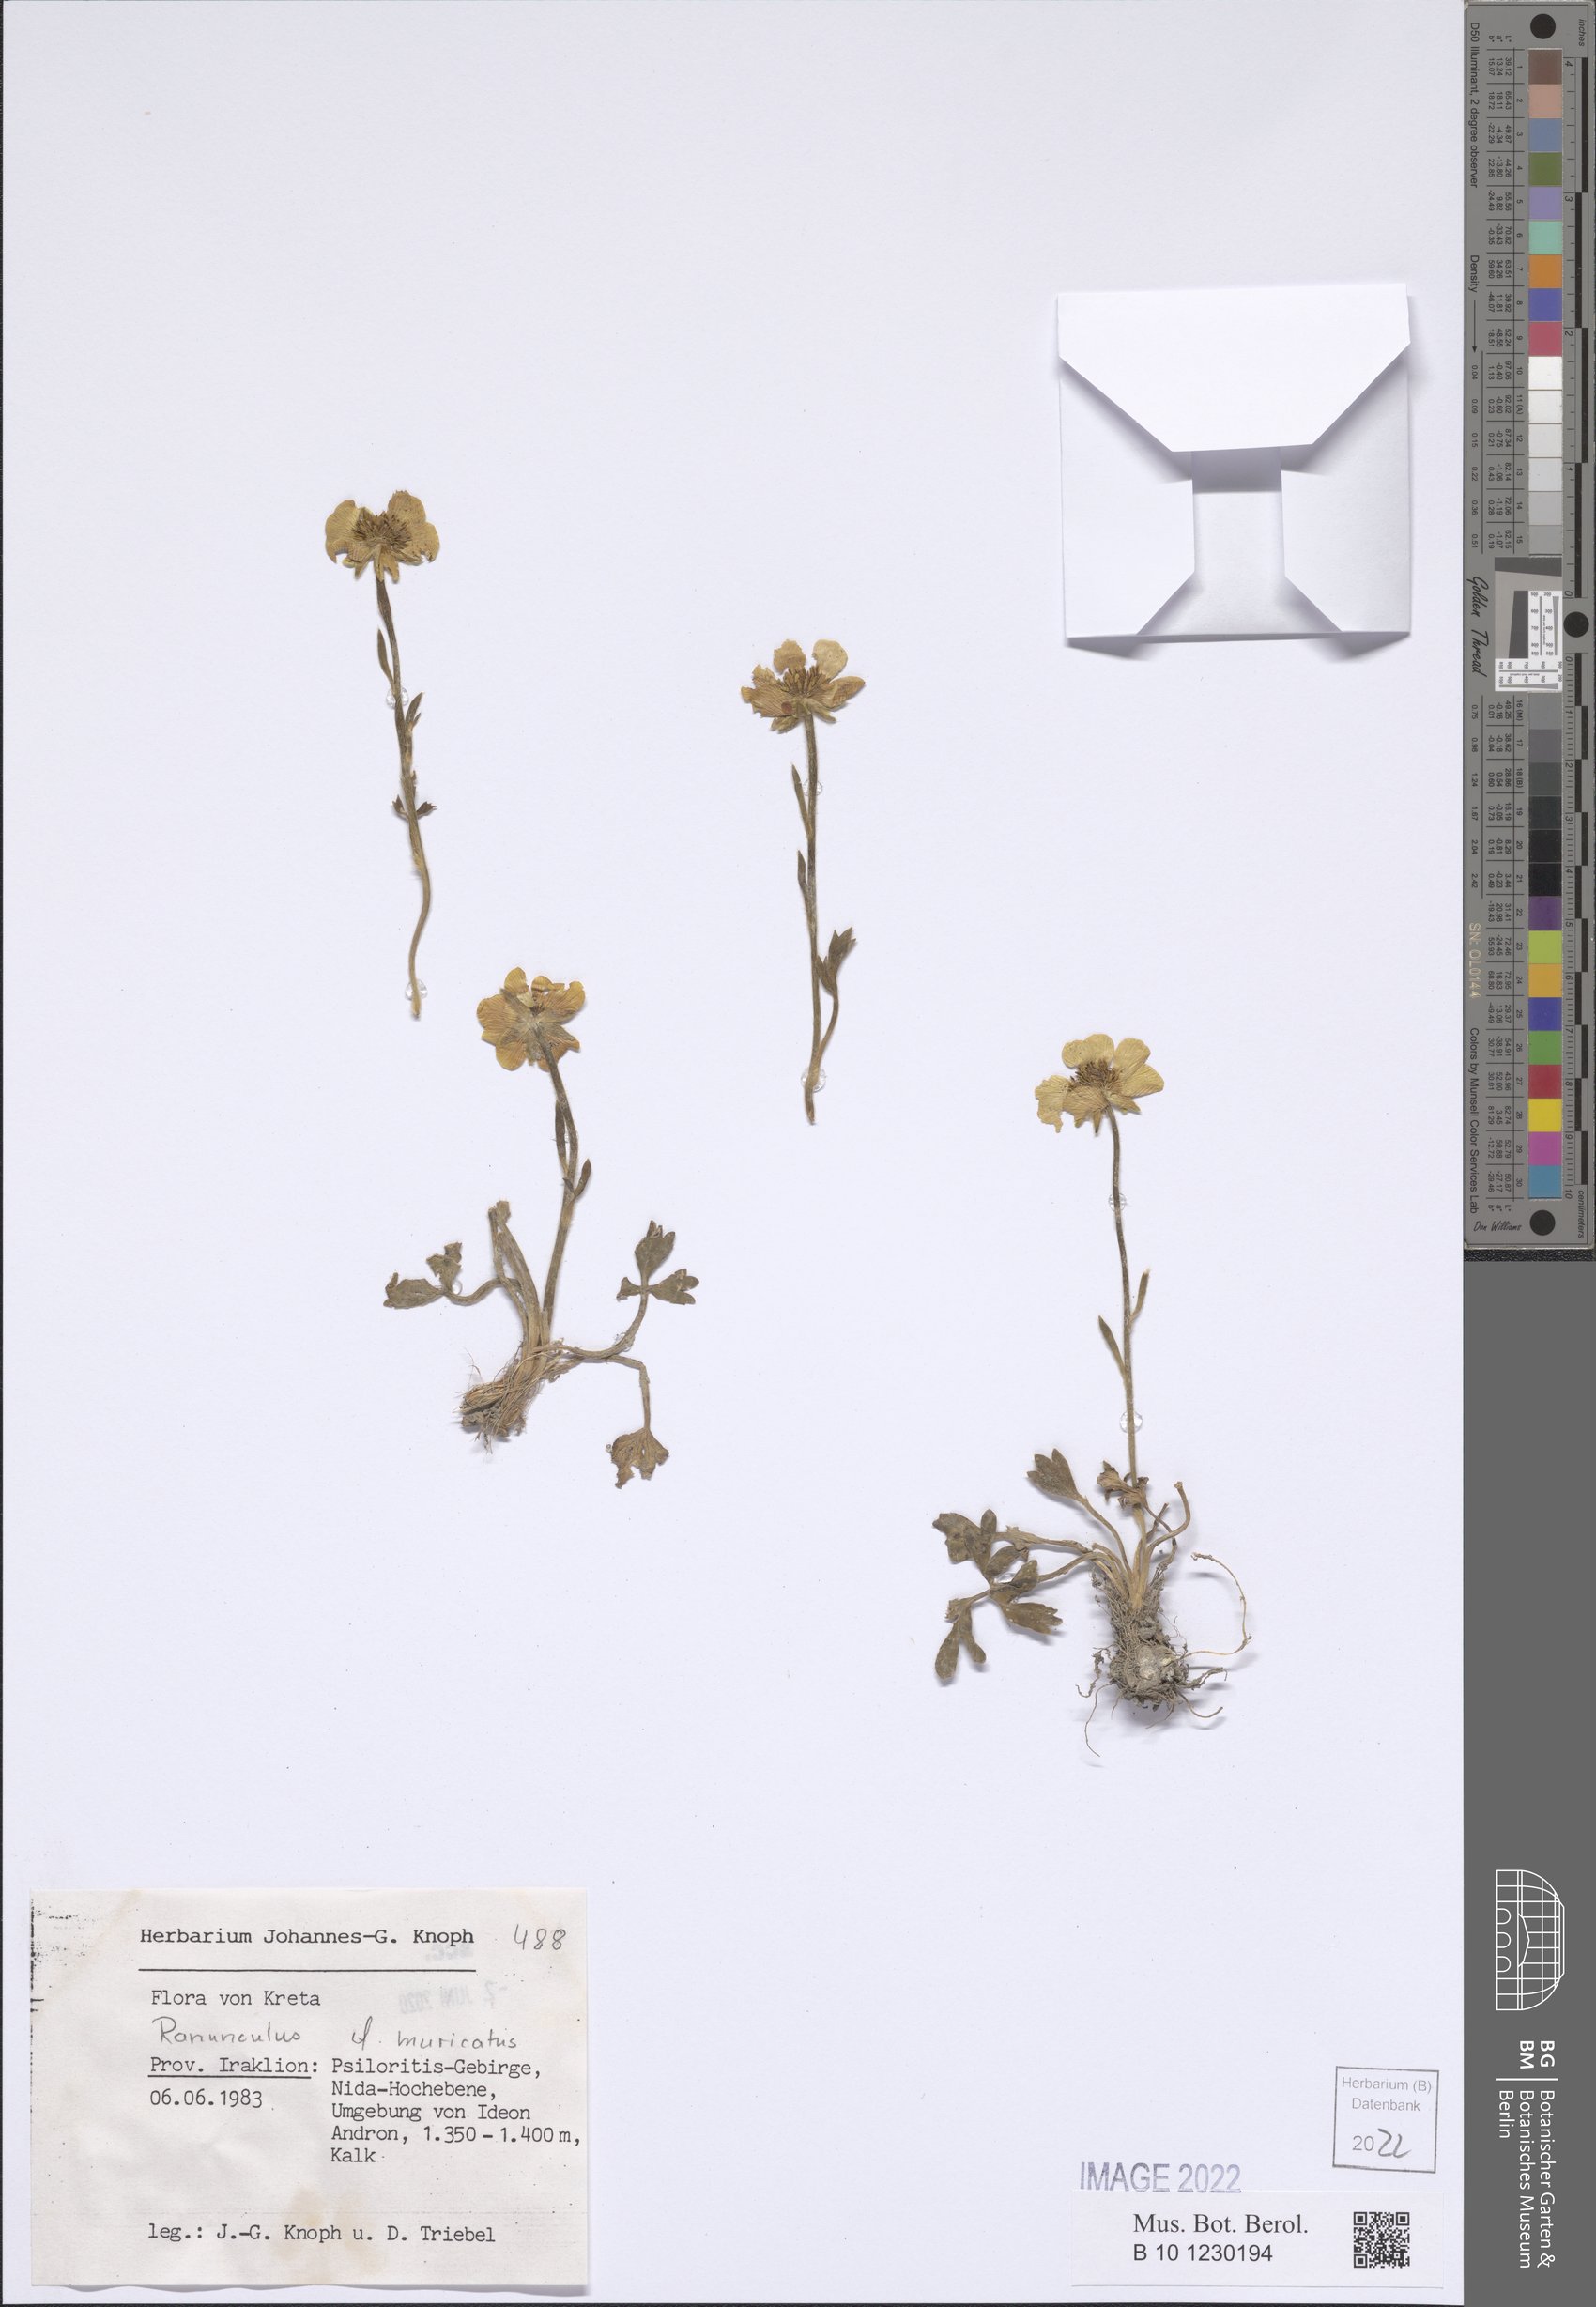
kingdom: Plantae
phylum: Tracheophyta
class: Magnoliopsida
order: Ranunculales
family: Ranunculaceae
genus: Ranunculus
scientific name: Ranunculus muricatus
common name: Rough-fruited buttercup
